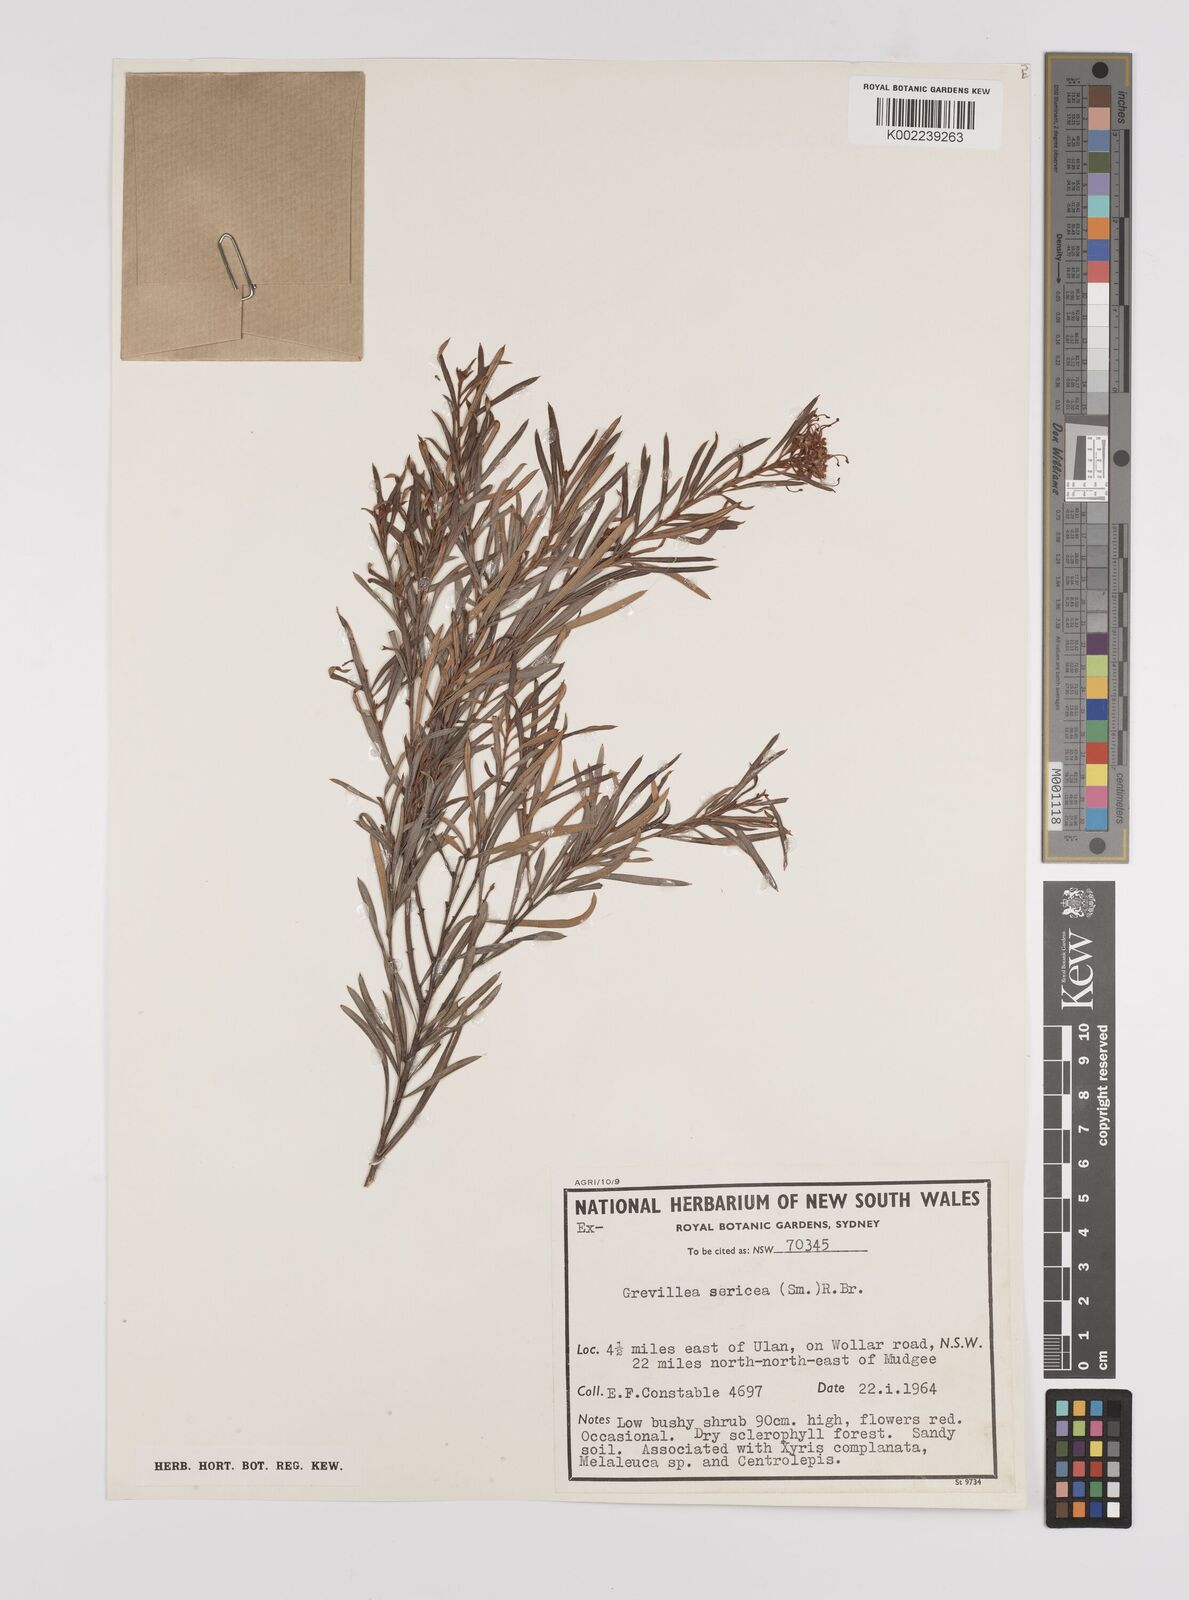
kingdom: Plantae
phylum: Tracheophyta
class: Magnoliopsida
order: Proteales
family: Proteaceae
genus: Grevillea
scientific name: Grevillea sericea
